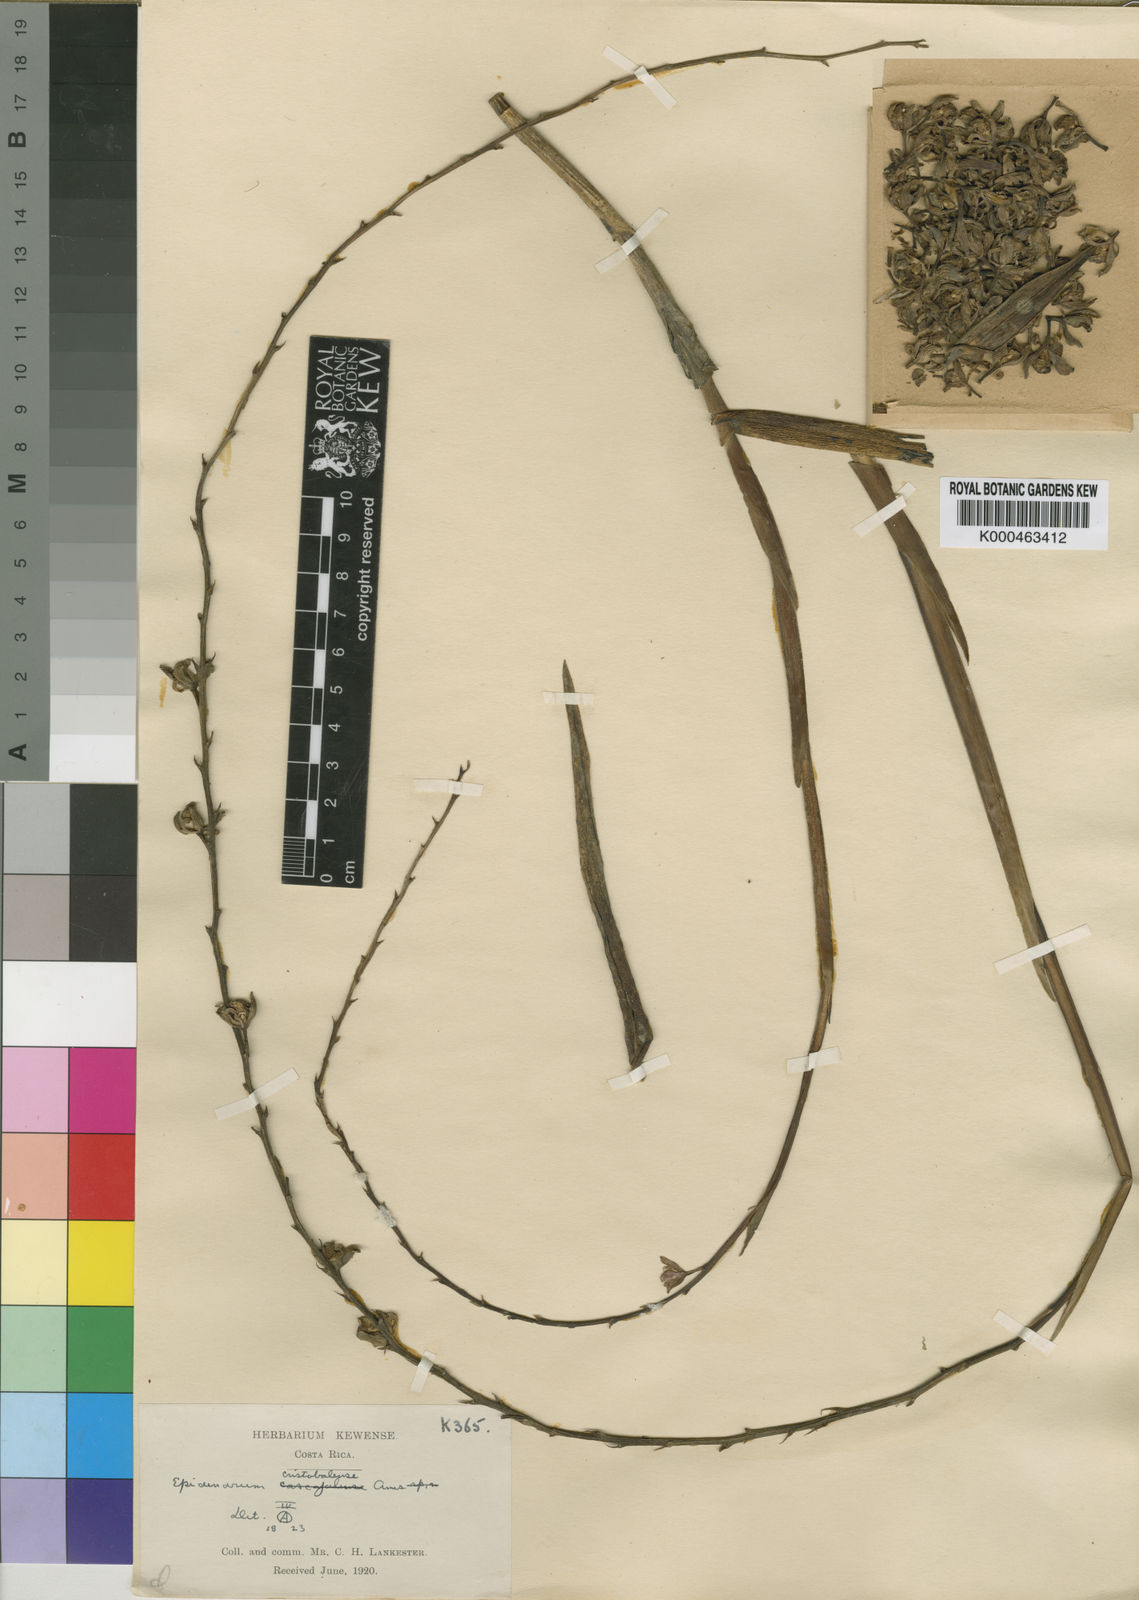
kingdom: Plantae
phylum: Tracheophyta
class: Liliopsida
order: Asparagales
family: Orchidaceae
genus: Epidendrum
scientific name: Epidendrum laucheanum
